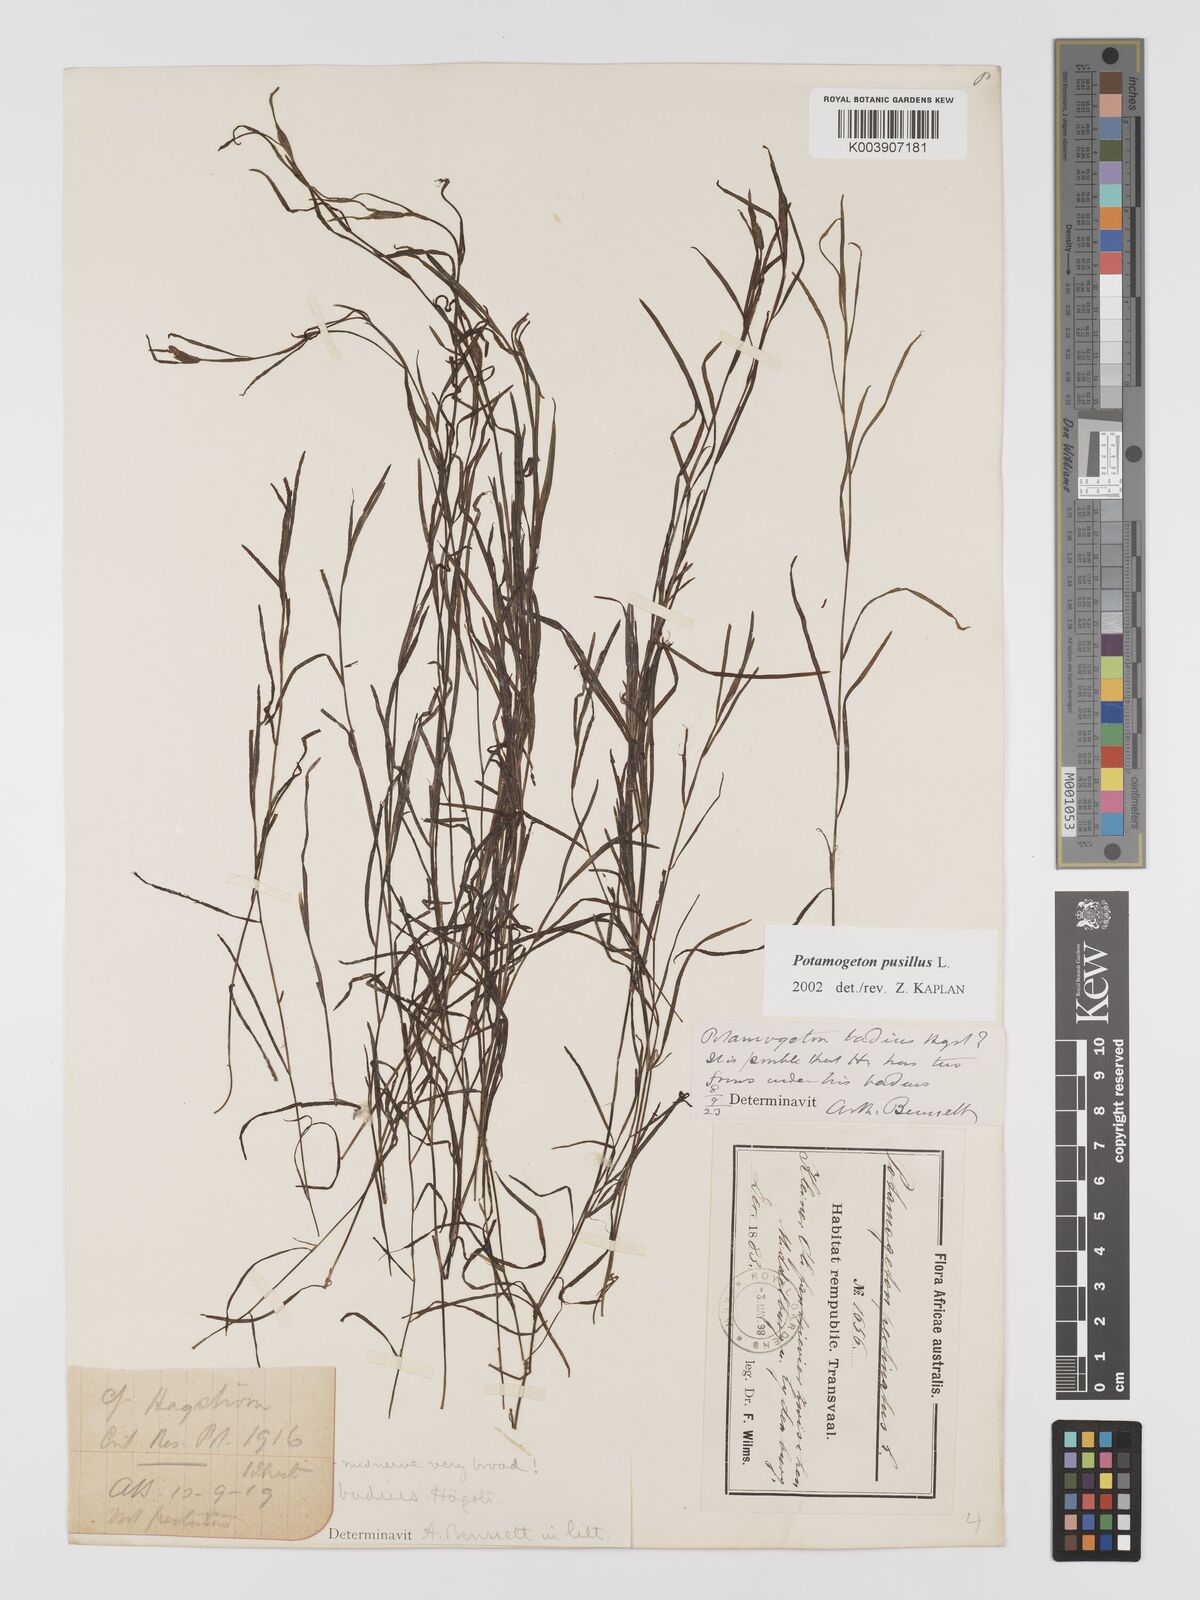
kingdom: Plantae
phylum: Tracheophyta
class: Liliopsida
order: Alismatales
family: Potamogetonaceae
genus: Potamogeton
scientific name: Potamogeton pusillus
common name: Lesser pondweed
